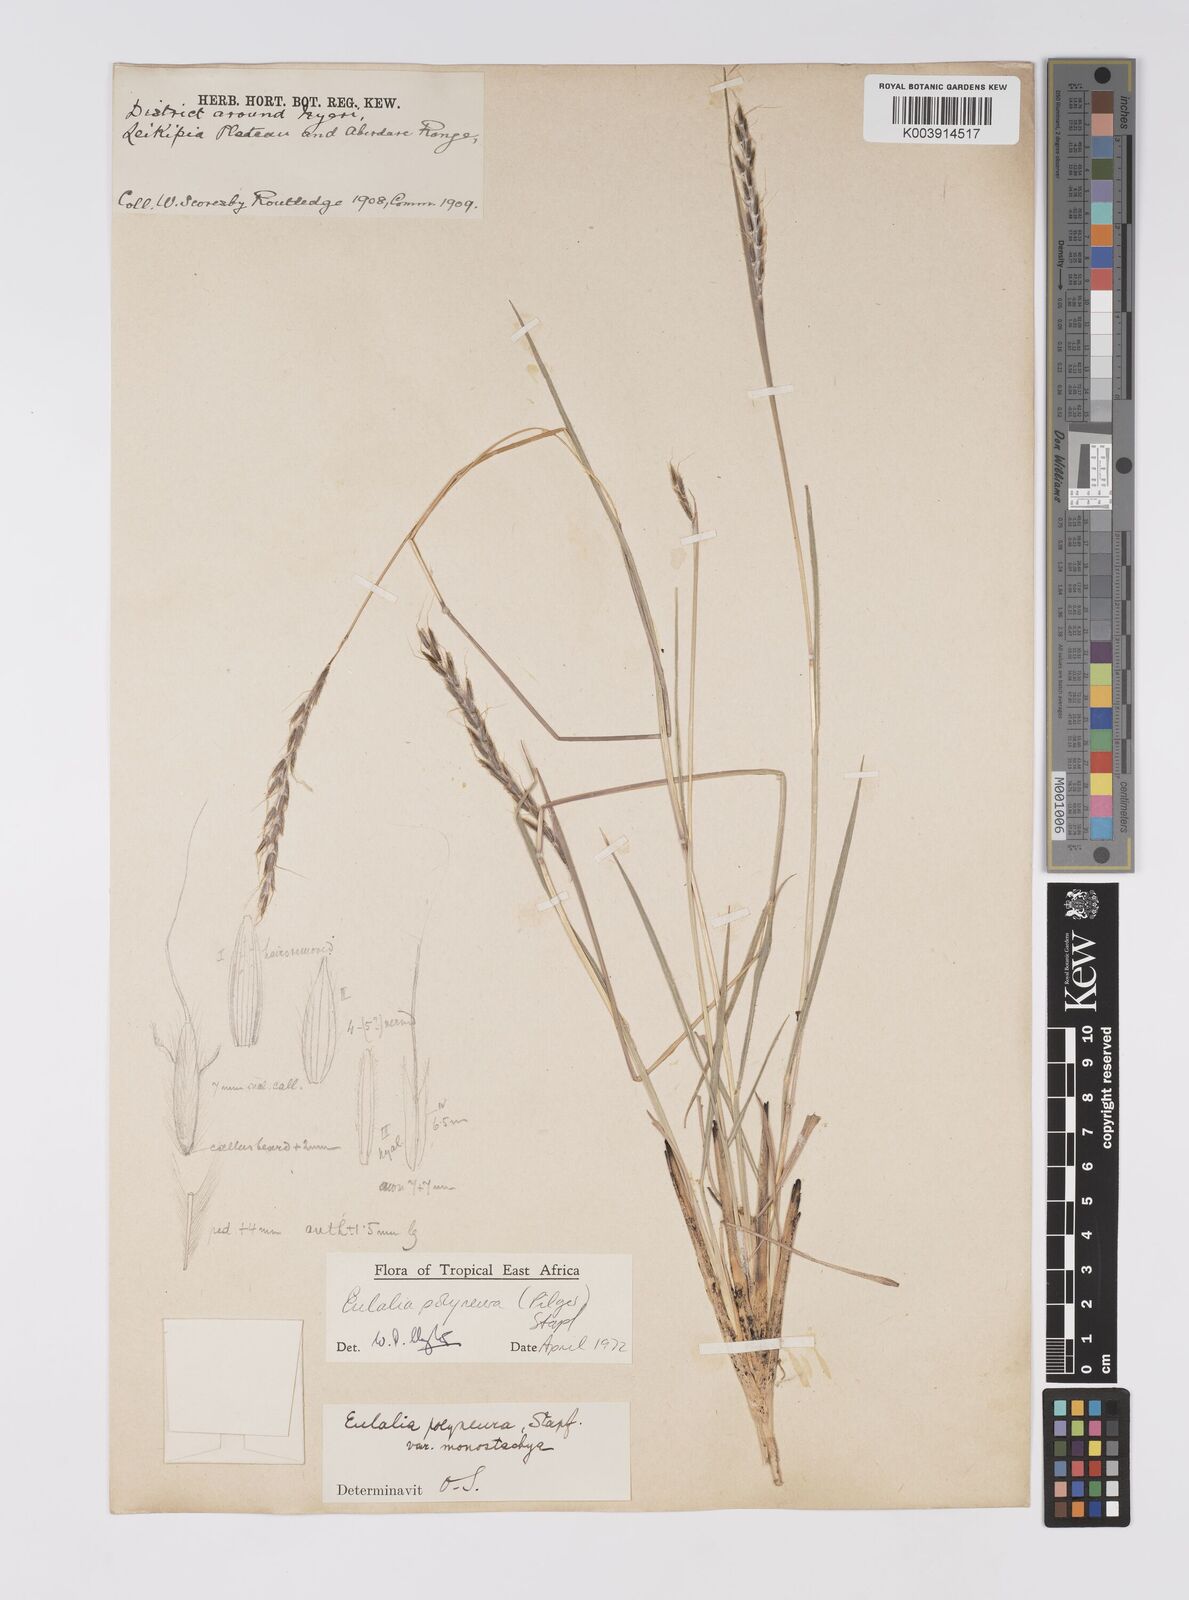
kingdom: Plantae
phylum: Tracheophyta
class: Liliopsida
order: Poales
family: Poaceae
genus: Eulalia
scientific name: Eulalia polyneura
